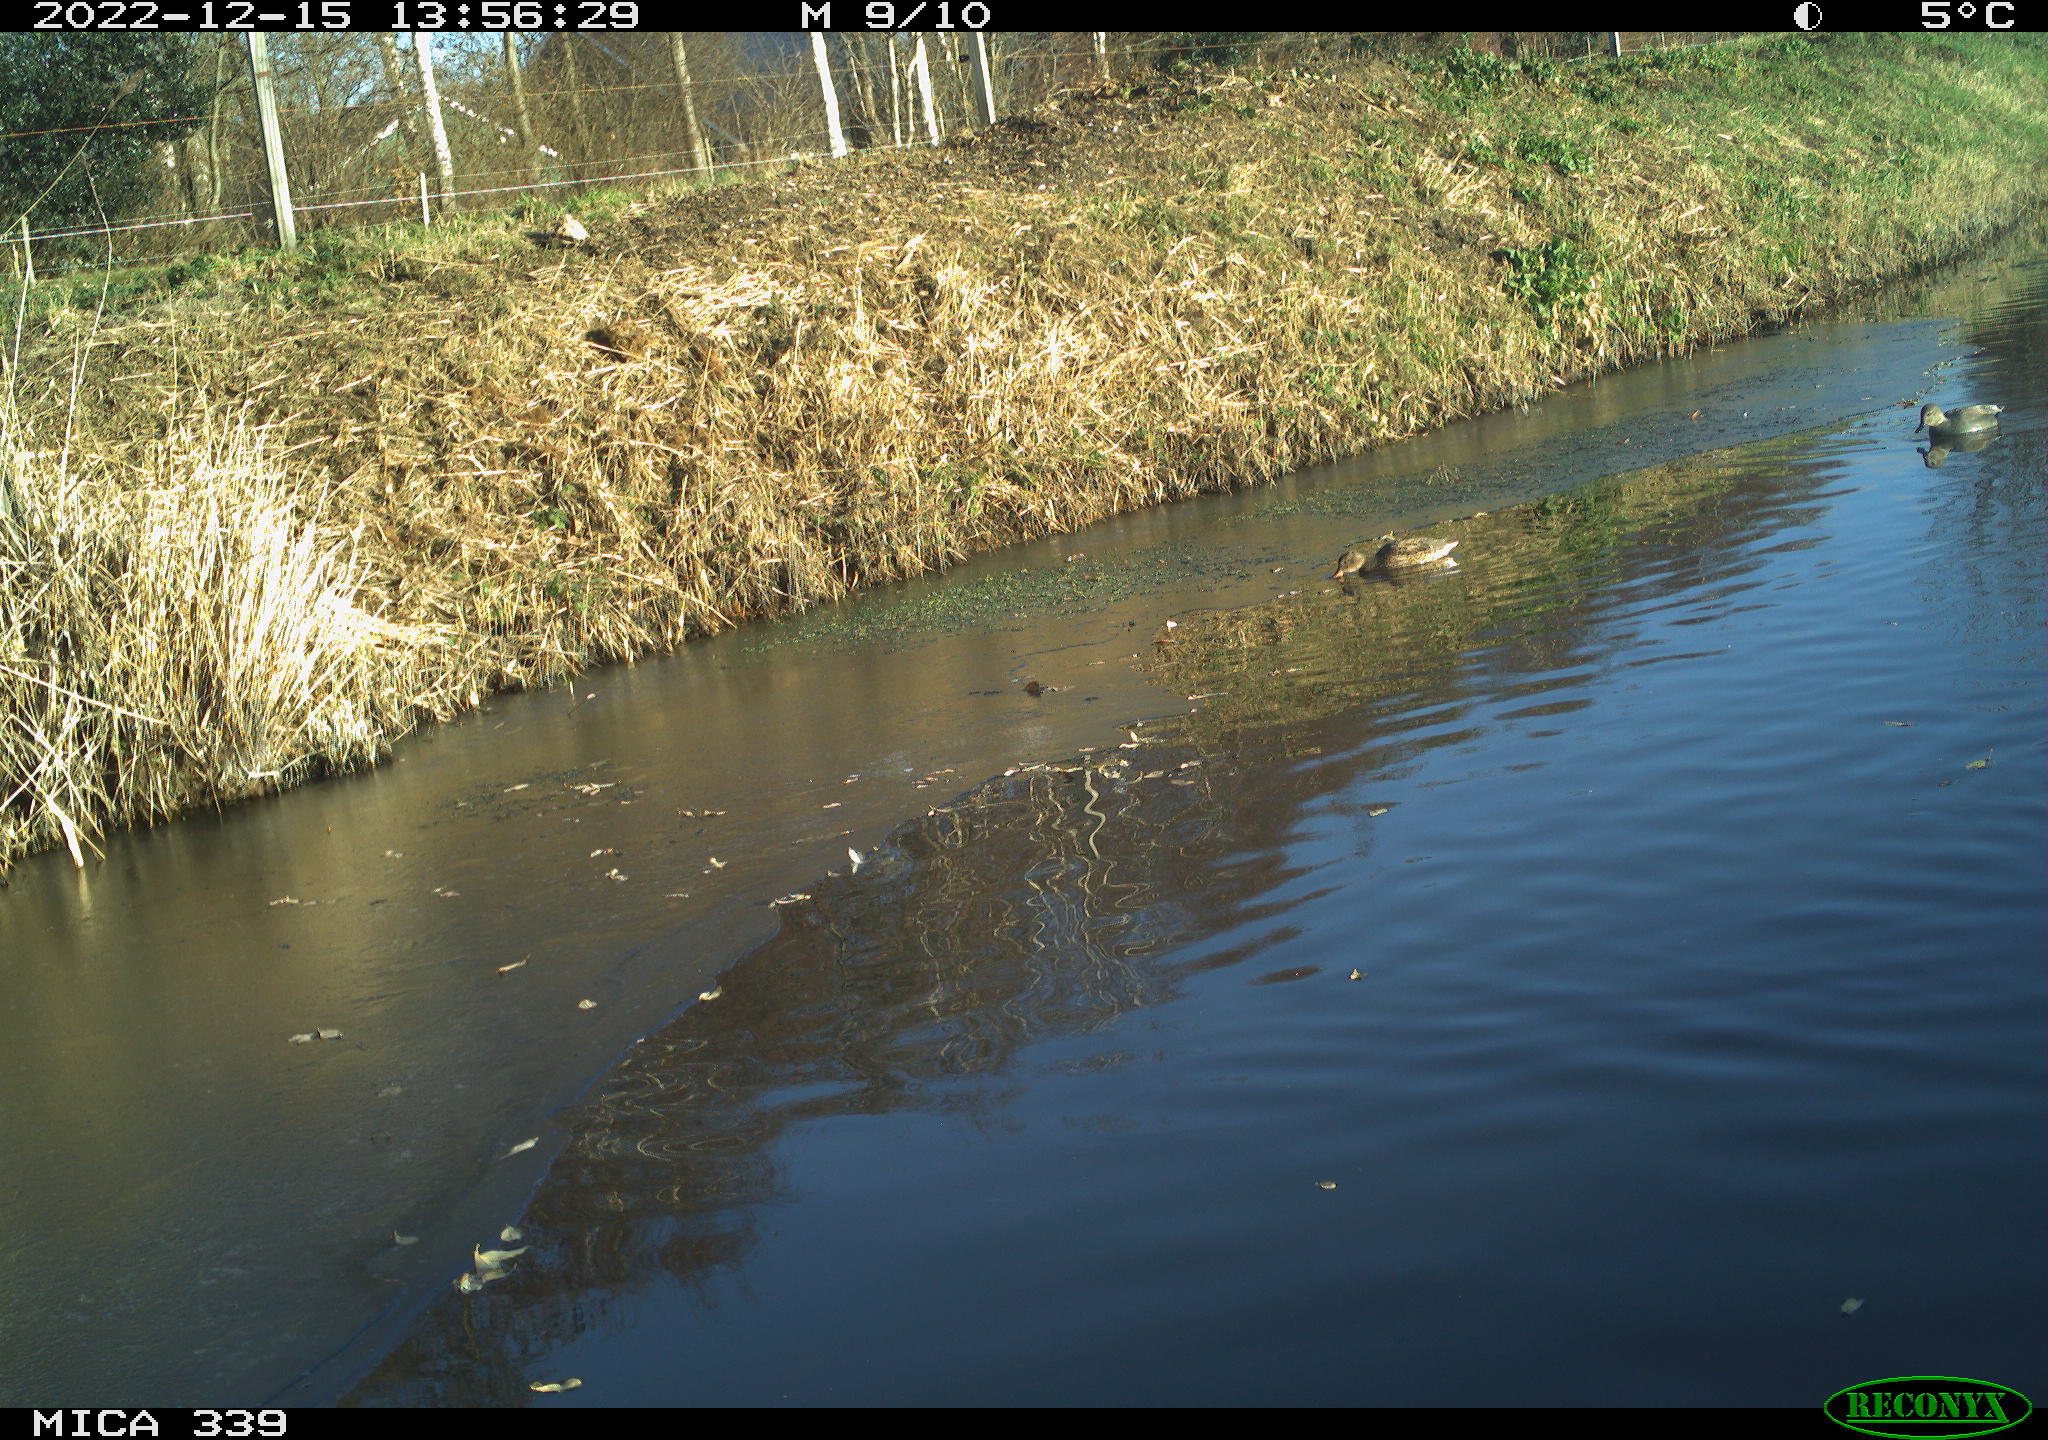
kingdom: Animalia
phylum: Chordata
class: Aves
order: Anseriformes
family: Anatidae
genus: Anas
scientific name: Anas
